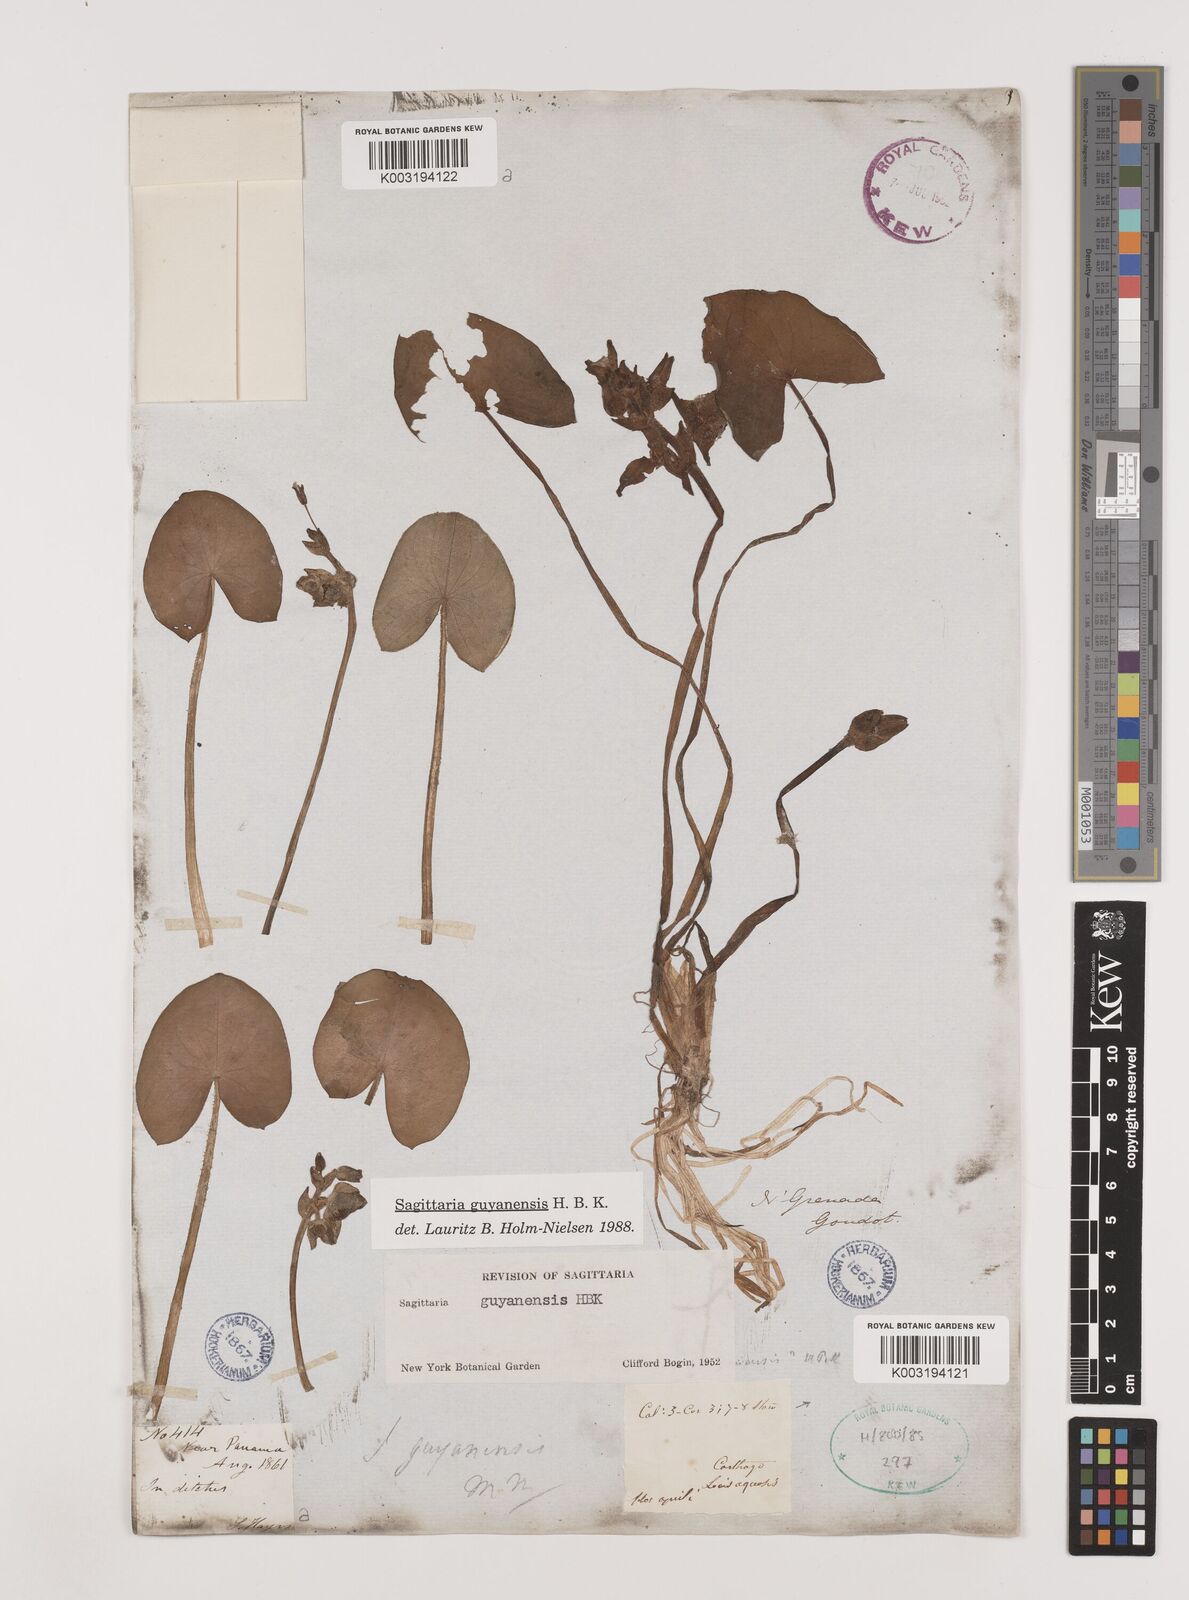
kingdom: Plantae
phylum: Tracheophyta
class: Liliopsida
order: Alismatales
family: Alismataceae
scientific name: Alismataceae
